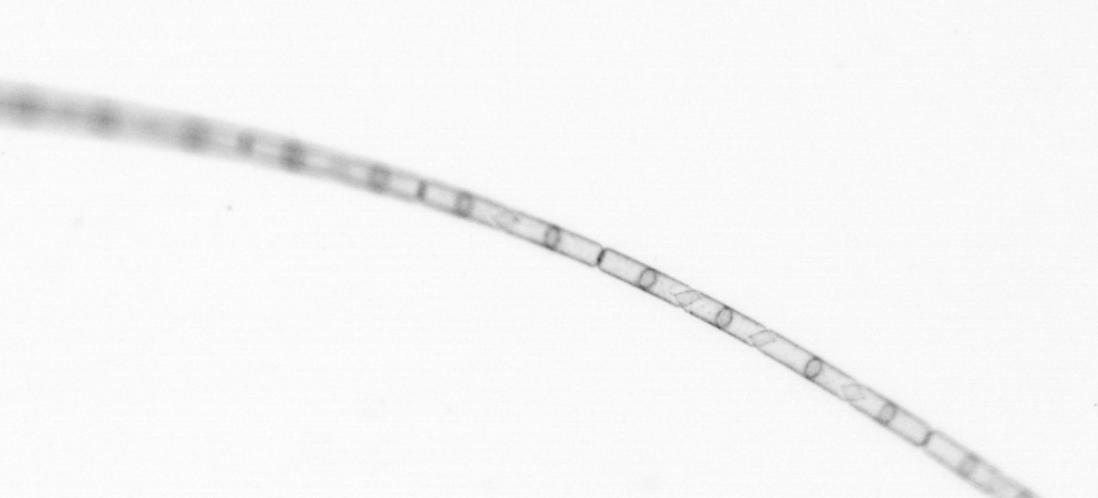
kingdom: Chromista
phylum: Ochrophyta
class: Bacillariophyceae
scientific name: Bacillariophyceae
